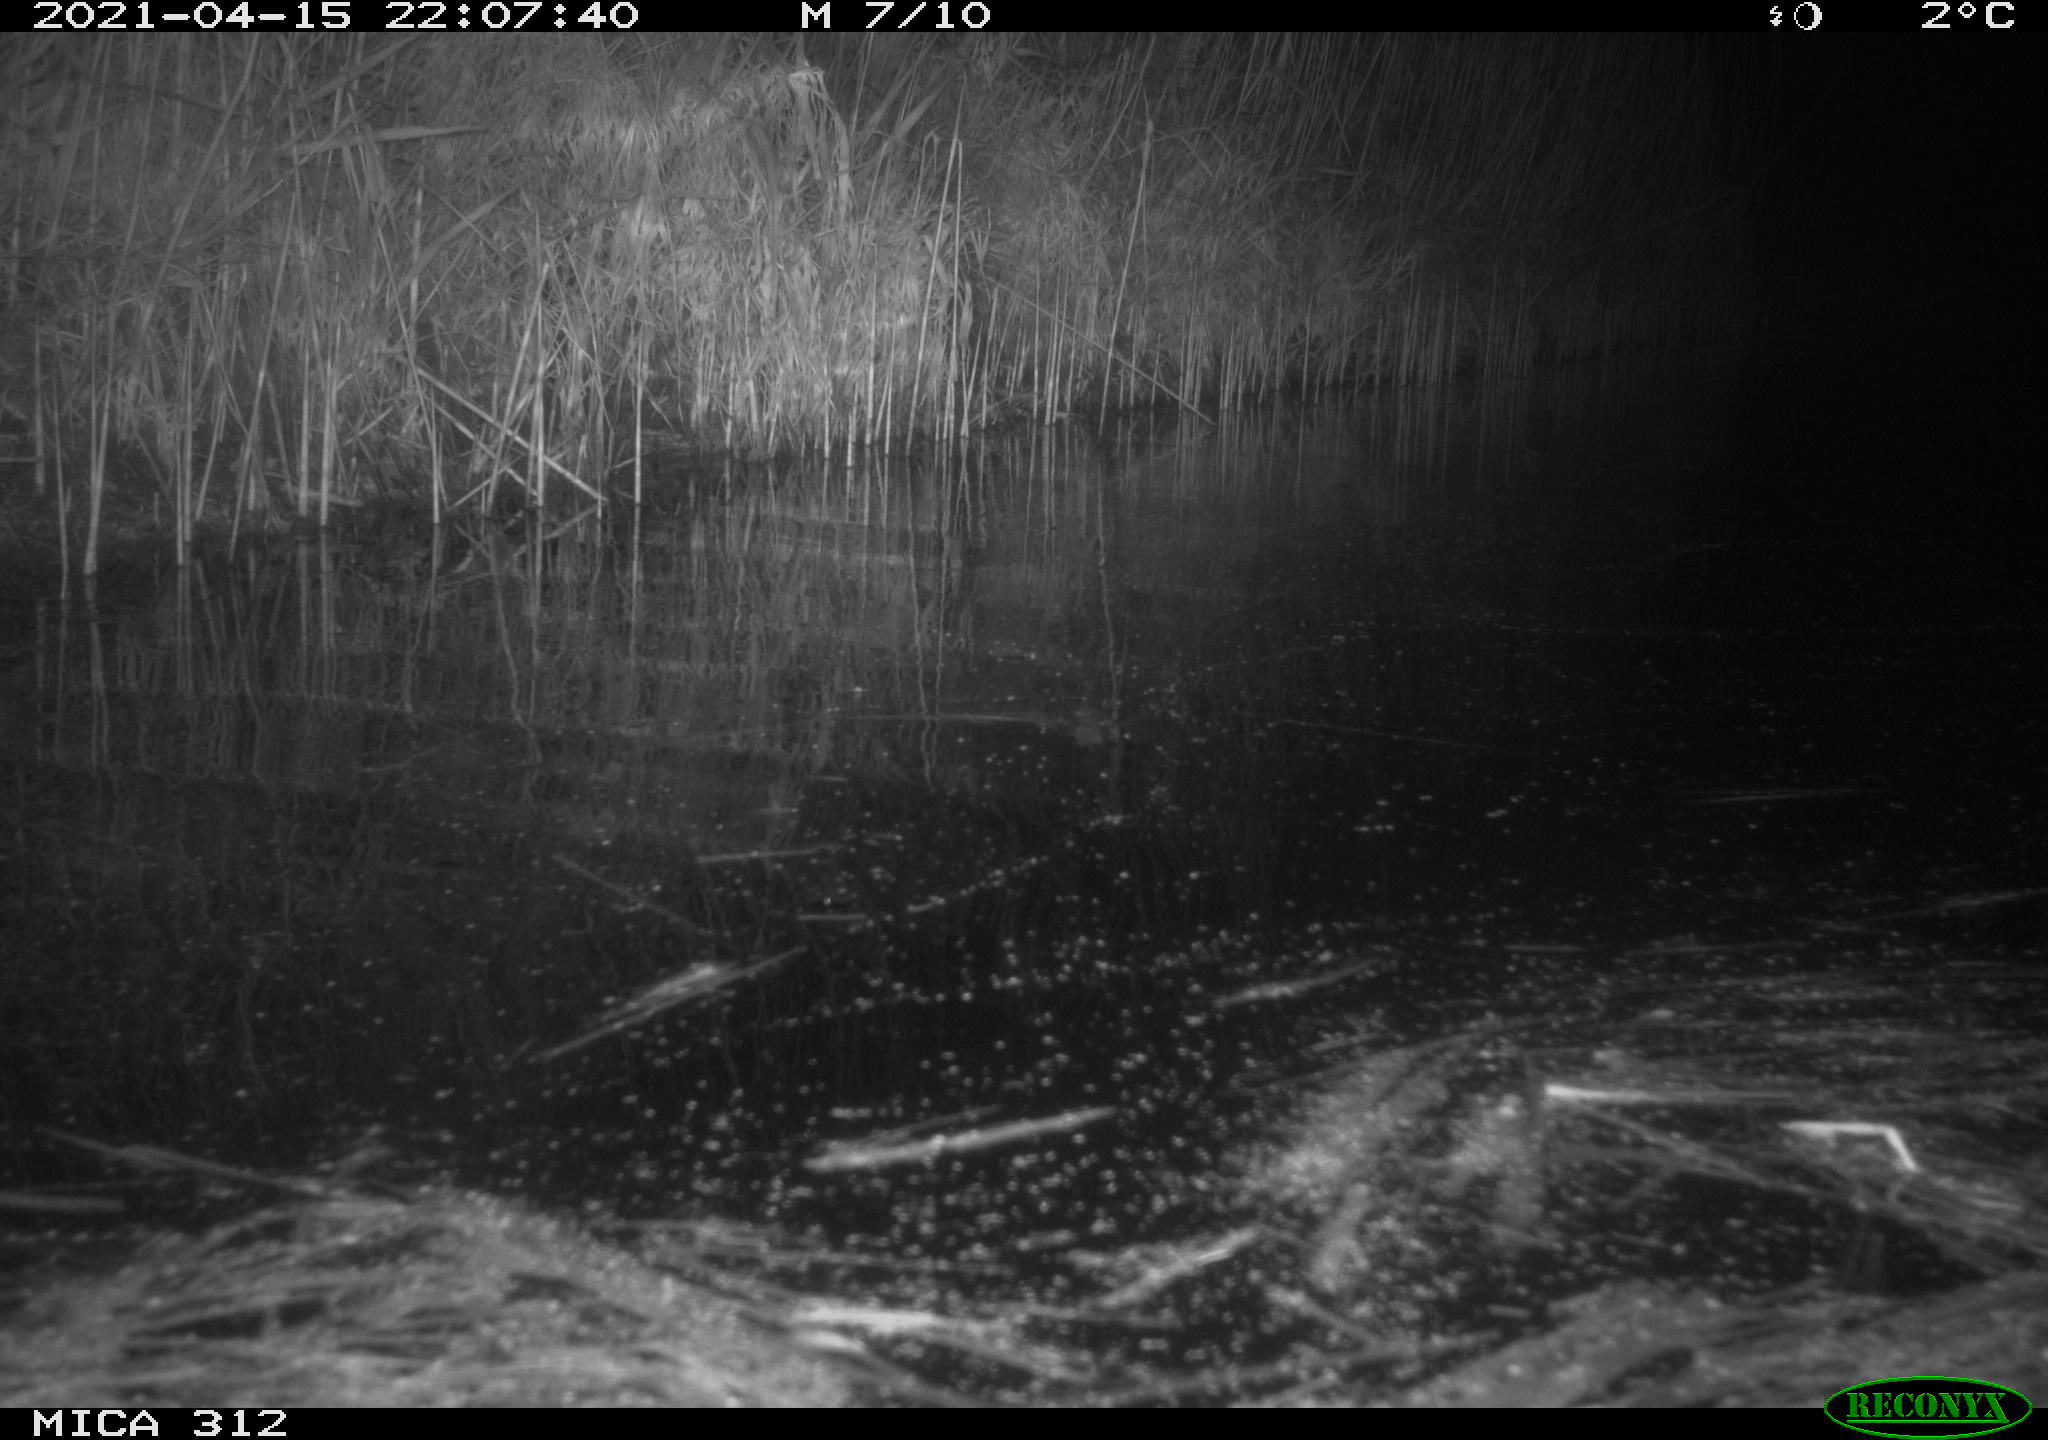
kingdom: Animalia
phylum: Chordata
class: Aves
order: Gruiformes
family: Rallidae
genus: Fulica
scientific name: Fulica atra
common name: Eurasian coot
